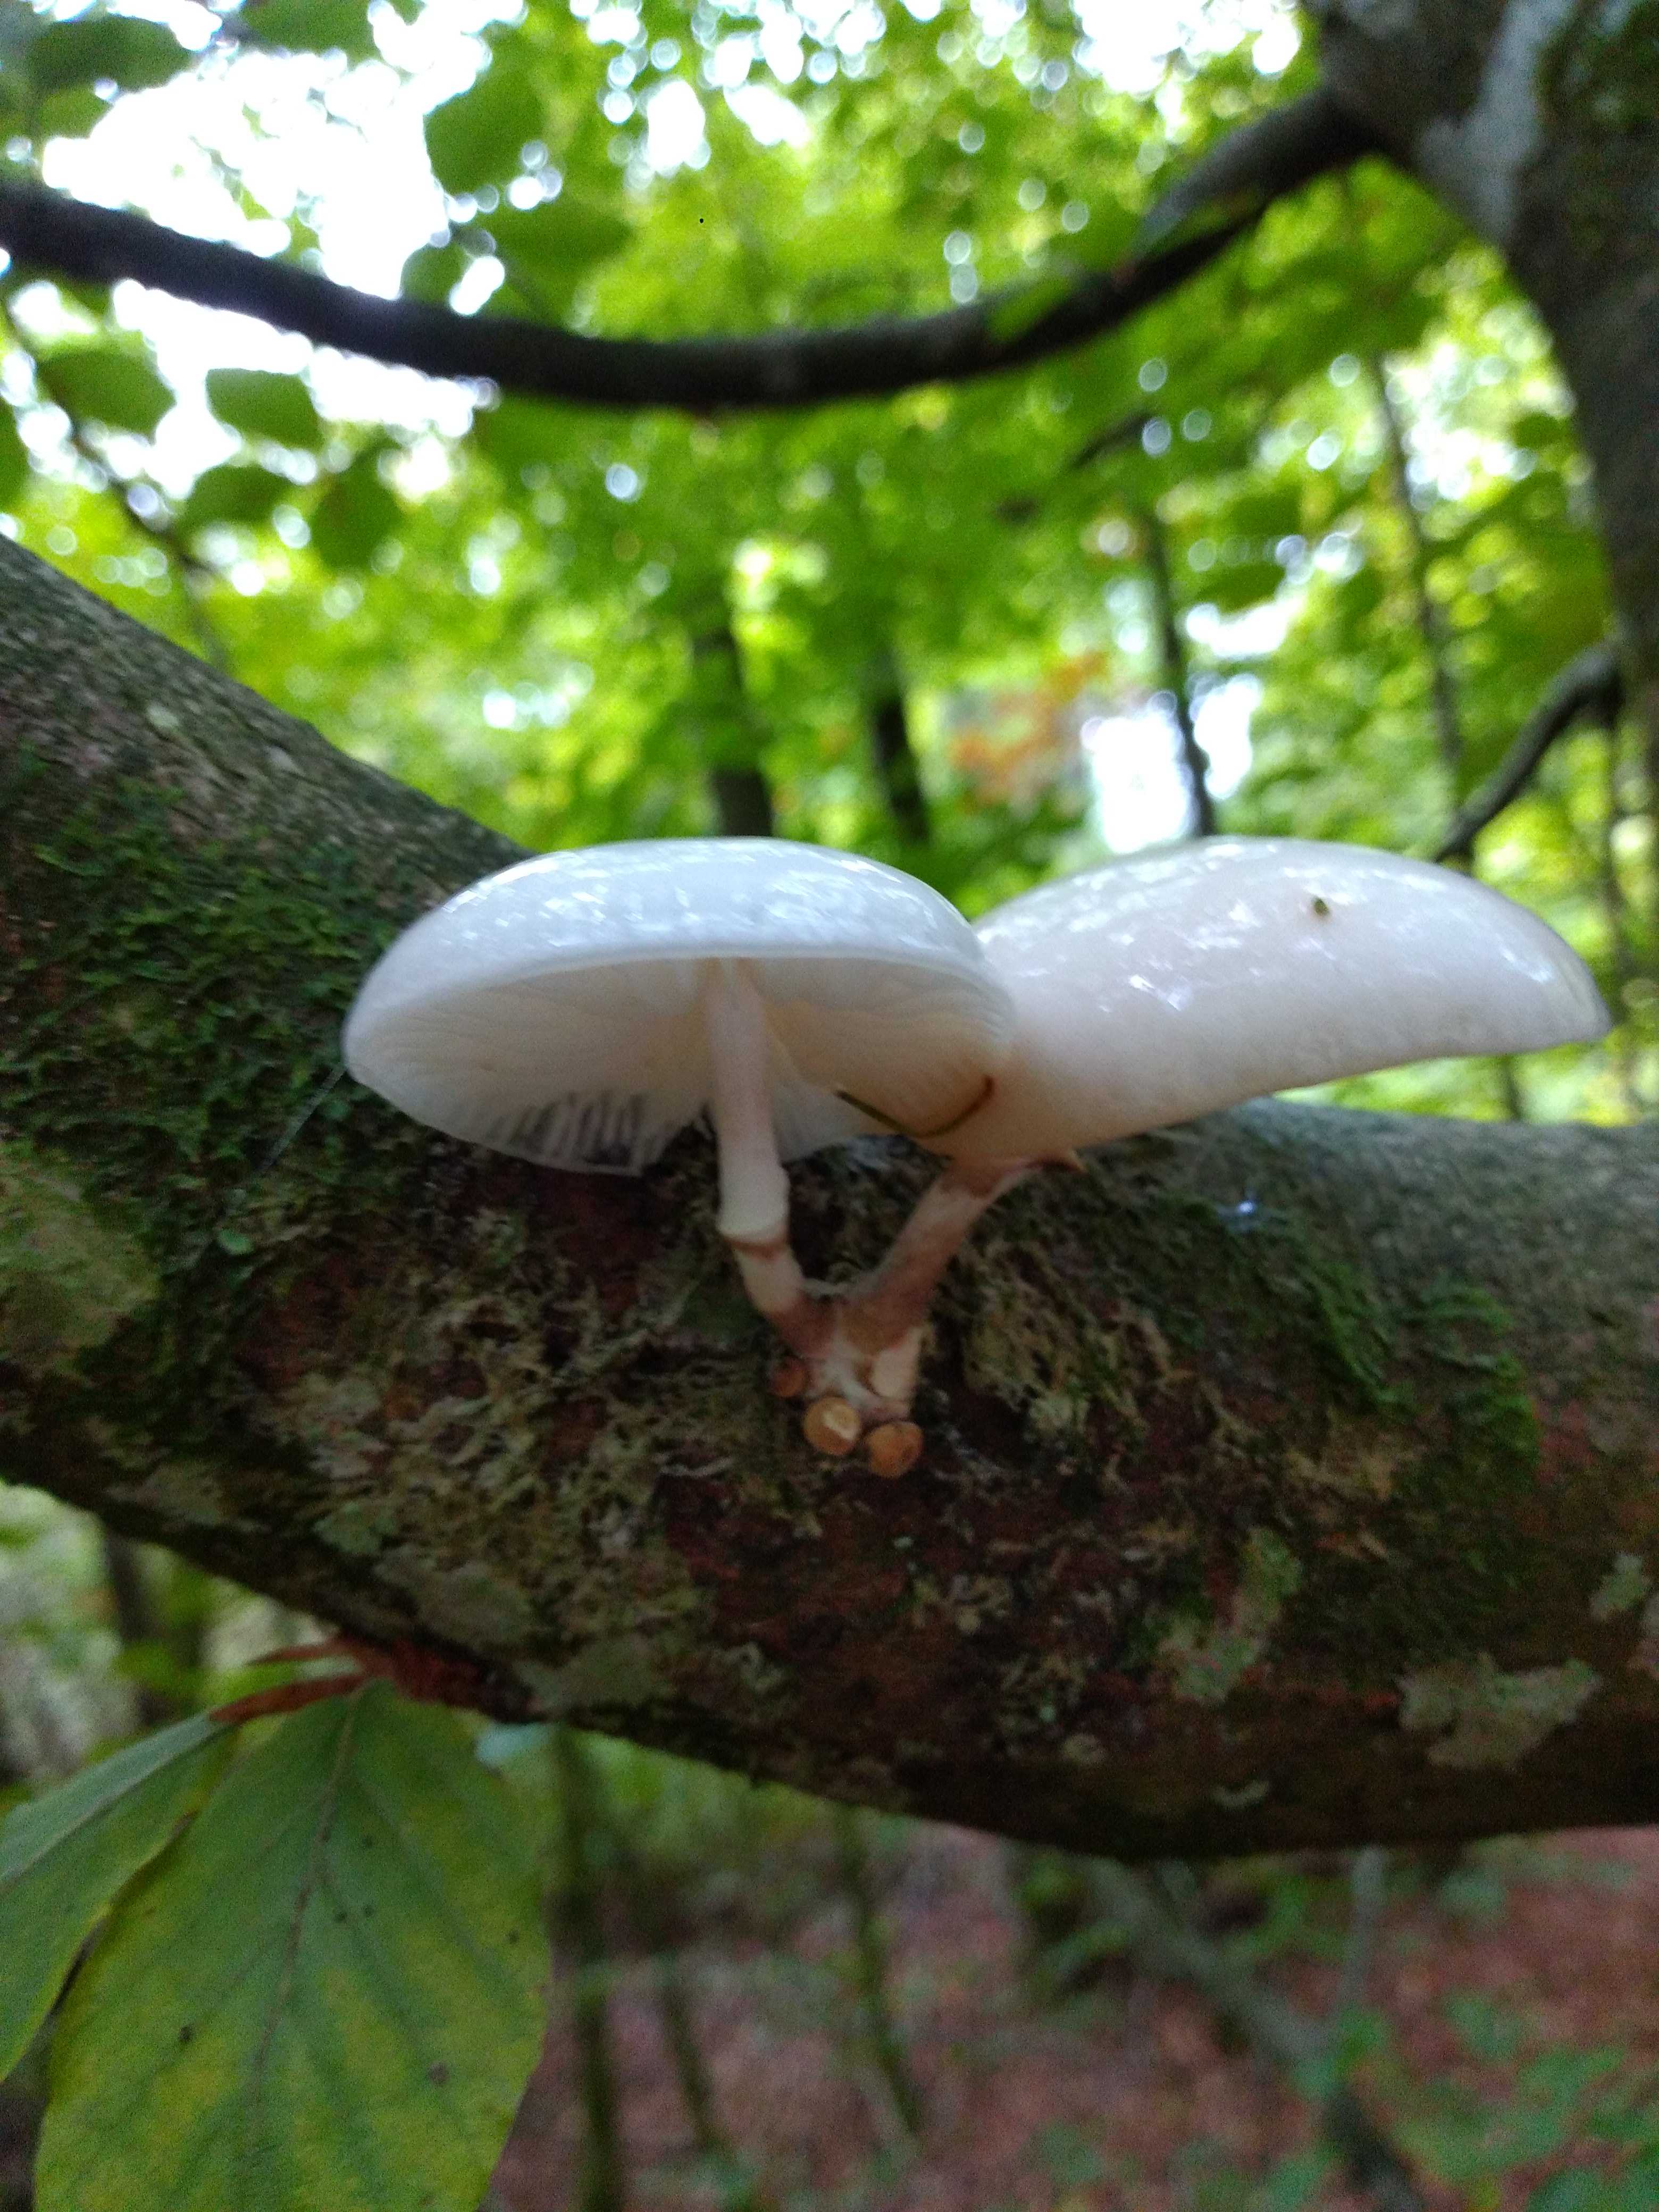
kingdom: Fungi
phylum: Basidiomycota
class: Agaricomycetes
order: Agaricales
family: Physalacriaceae
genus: Mucidula
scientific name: Mucidula mucida
